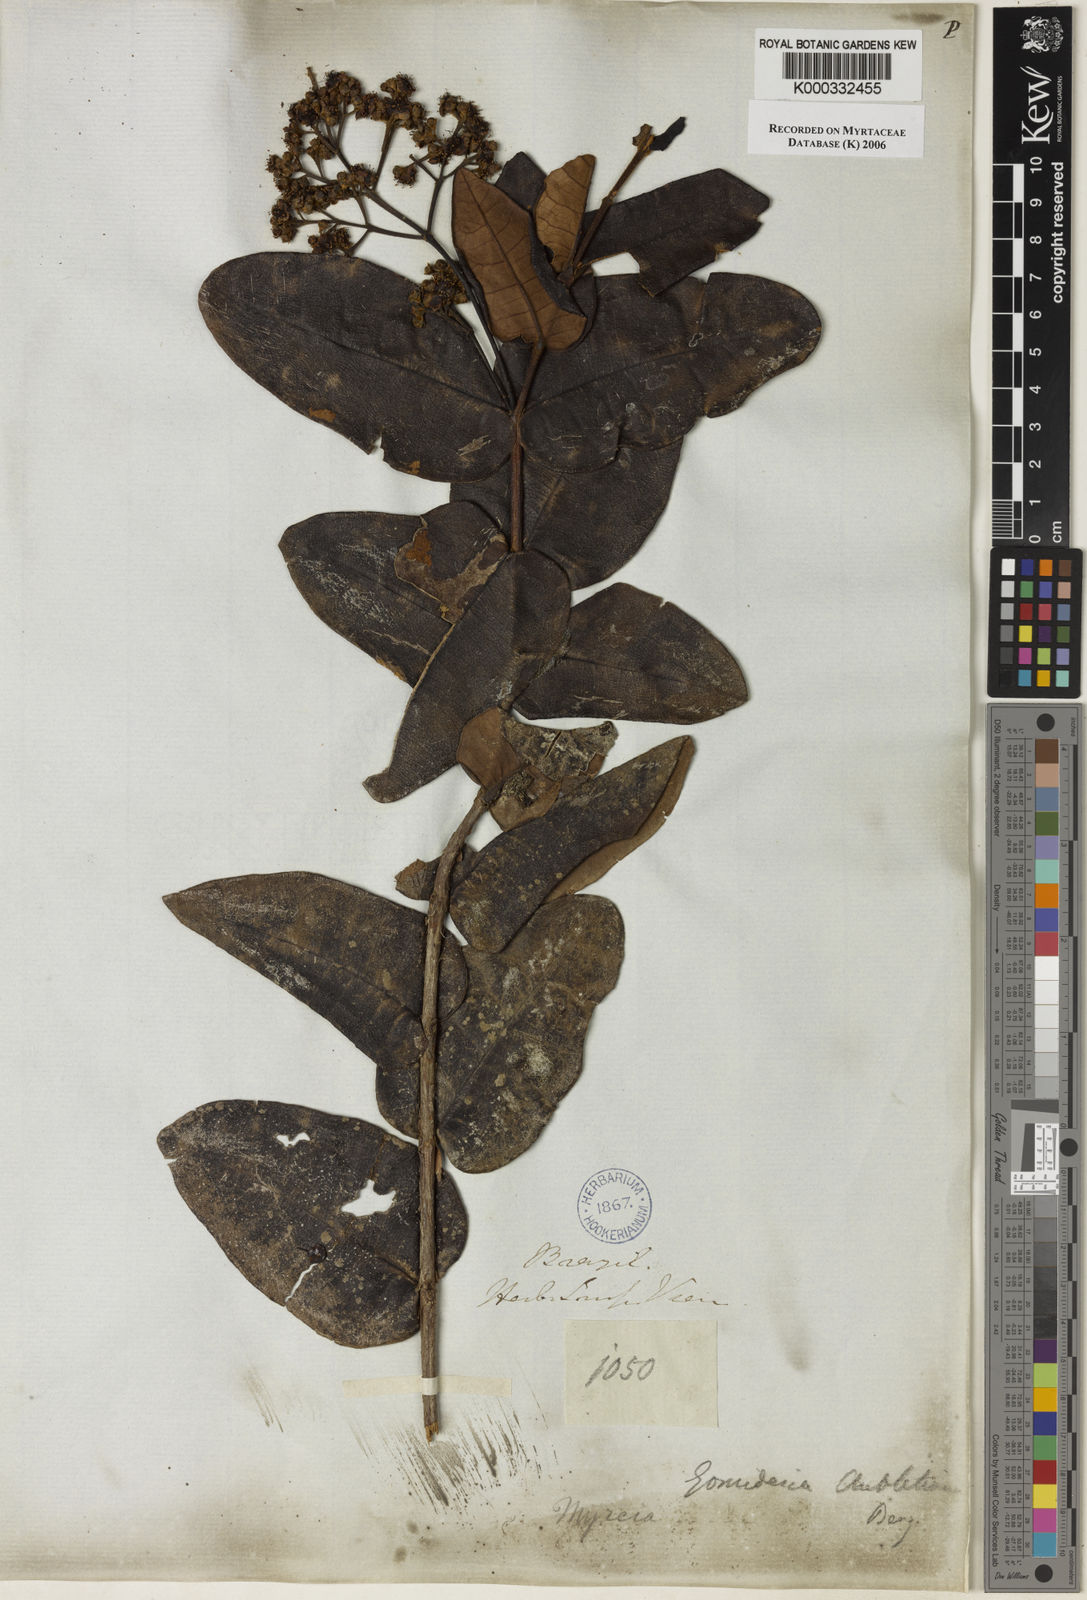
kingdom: Plantae
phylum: Tracheophyta
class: Magnoliopsida
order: Myrtales
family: Myrtaceae
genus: Myrcia
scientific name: Myrcia pubescens
